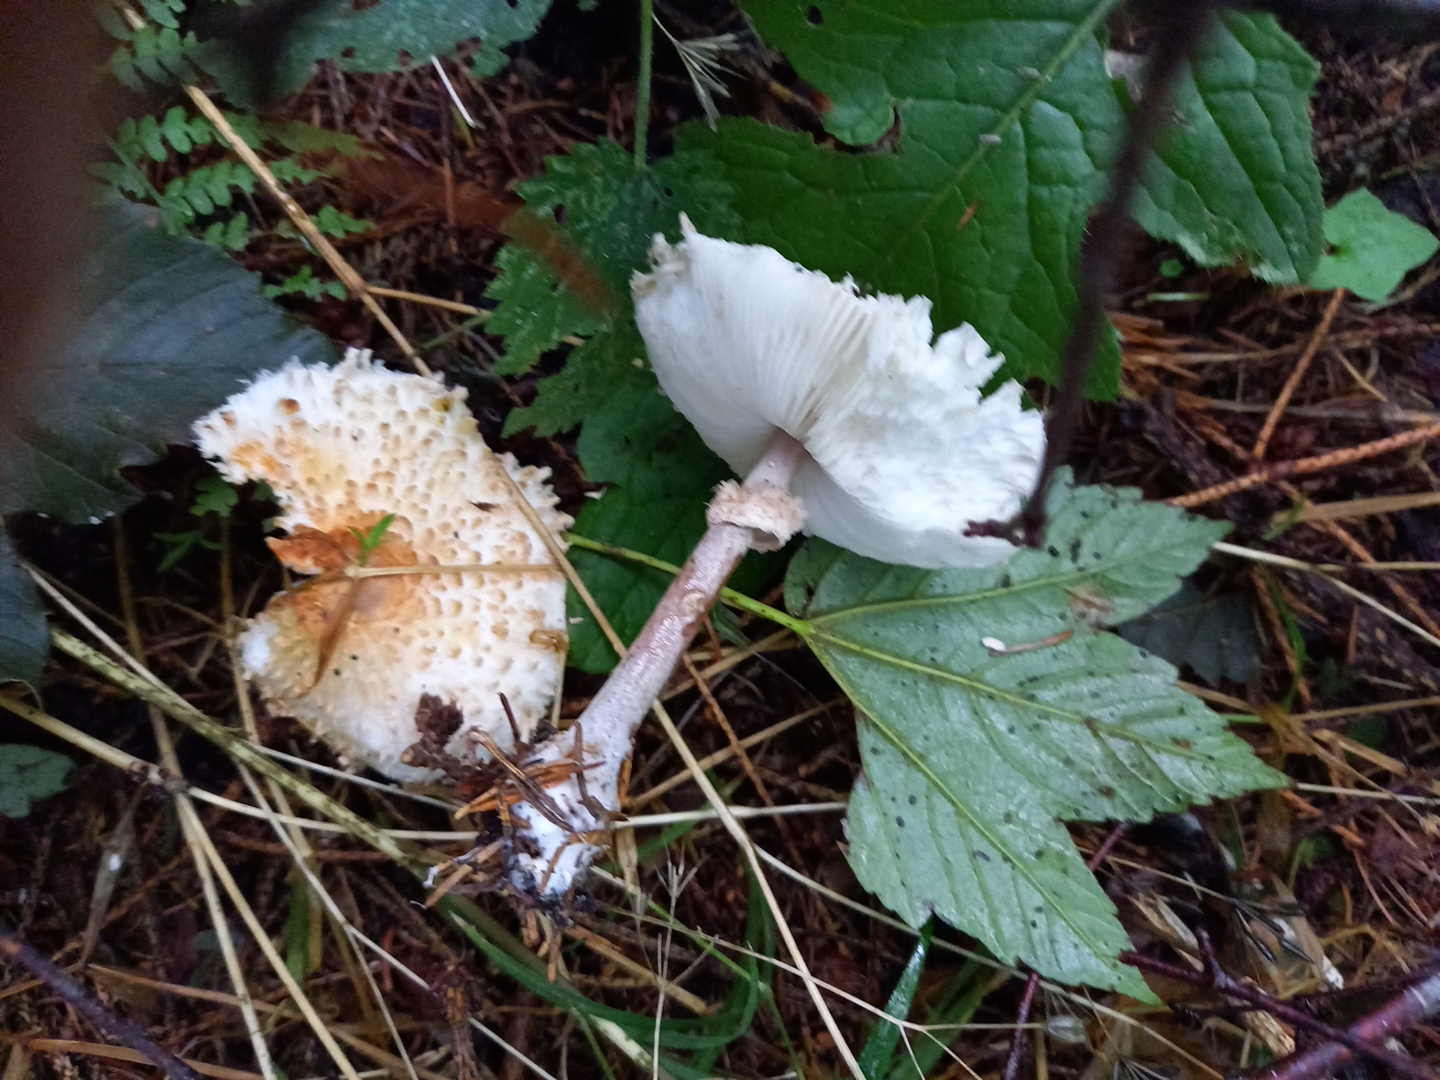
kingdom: Fungi
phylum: Basidiomycota
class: Agaricomycetes
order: Agaricales
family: Agaricaceae
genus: Leucoagaricus
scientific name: Leucoagaricus nympharum
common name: gran-silkehat
